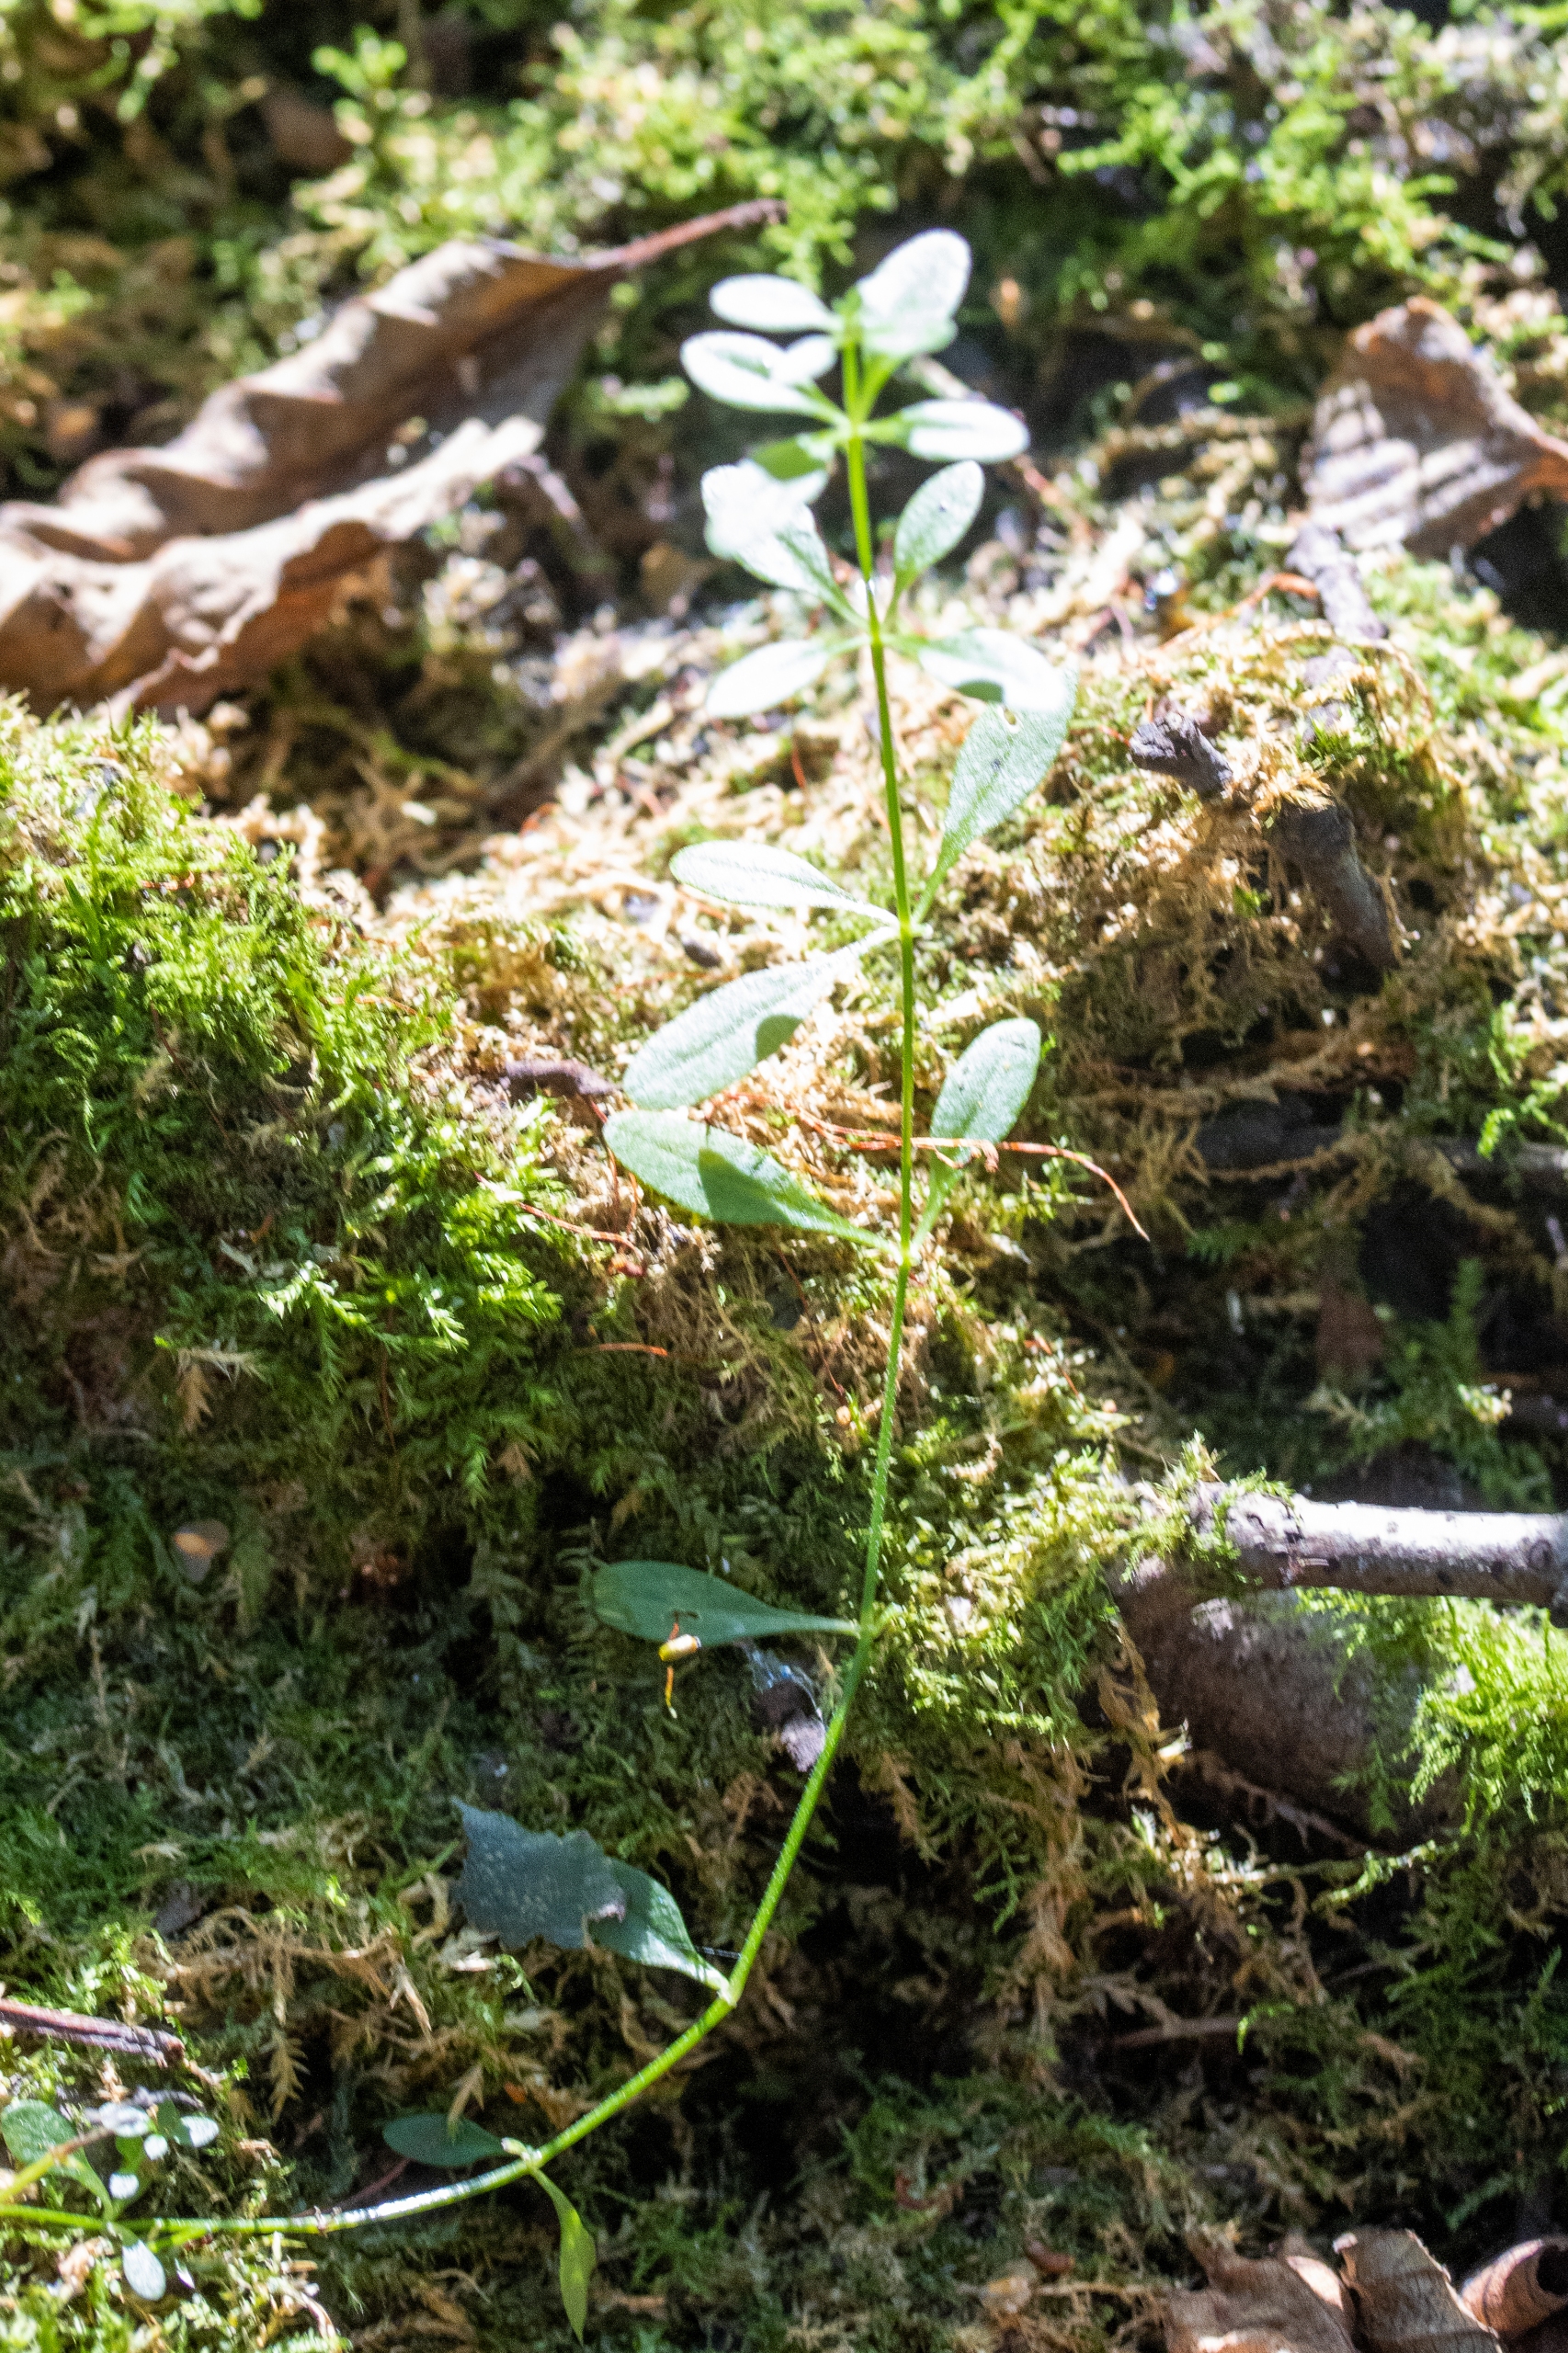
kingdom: Plantae
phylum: Tracheophyta
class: Magnoliopsida
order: Gentianales
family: Rubiaceae
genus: Galium
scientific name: Galium palustre
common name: Kær-snerre
